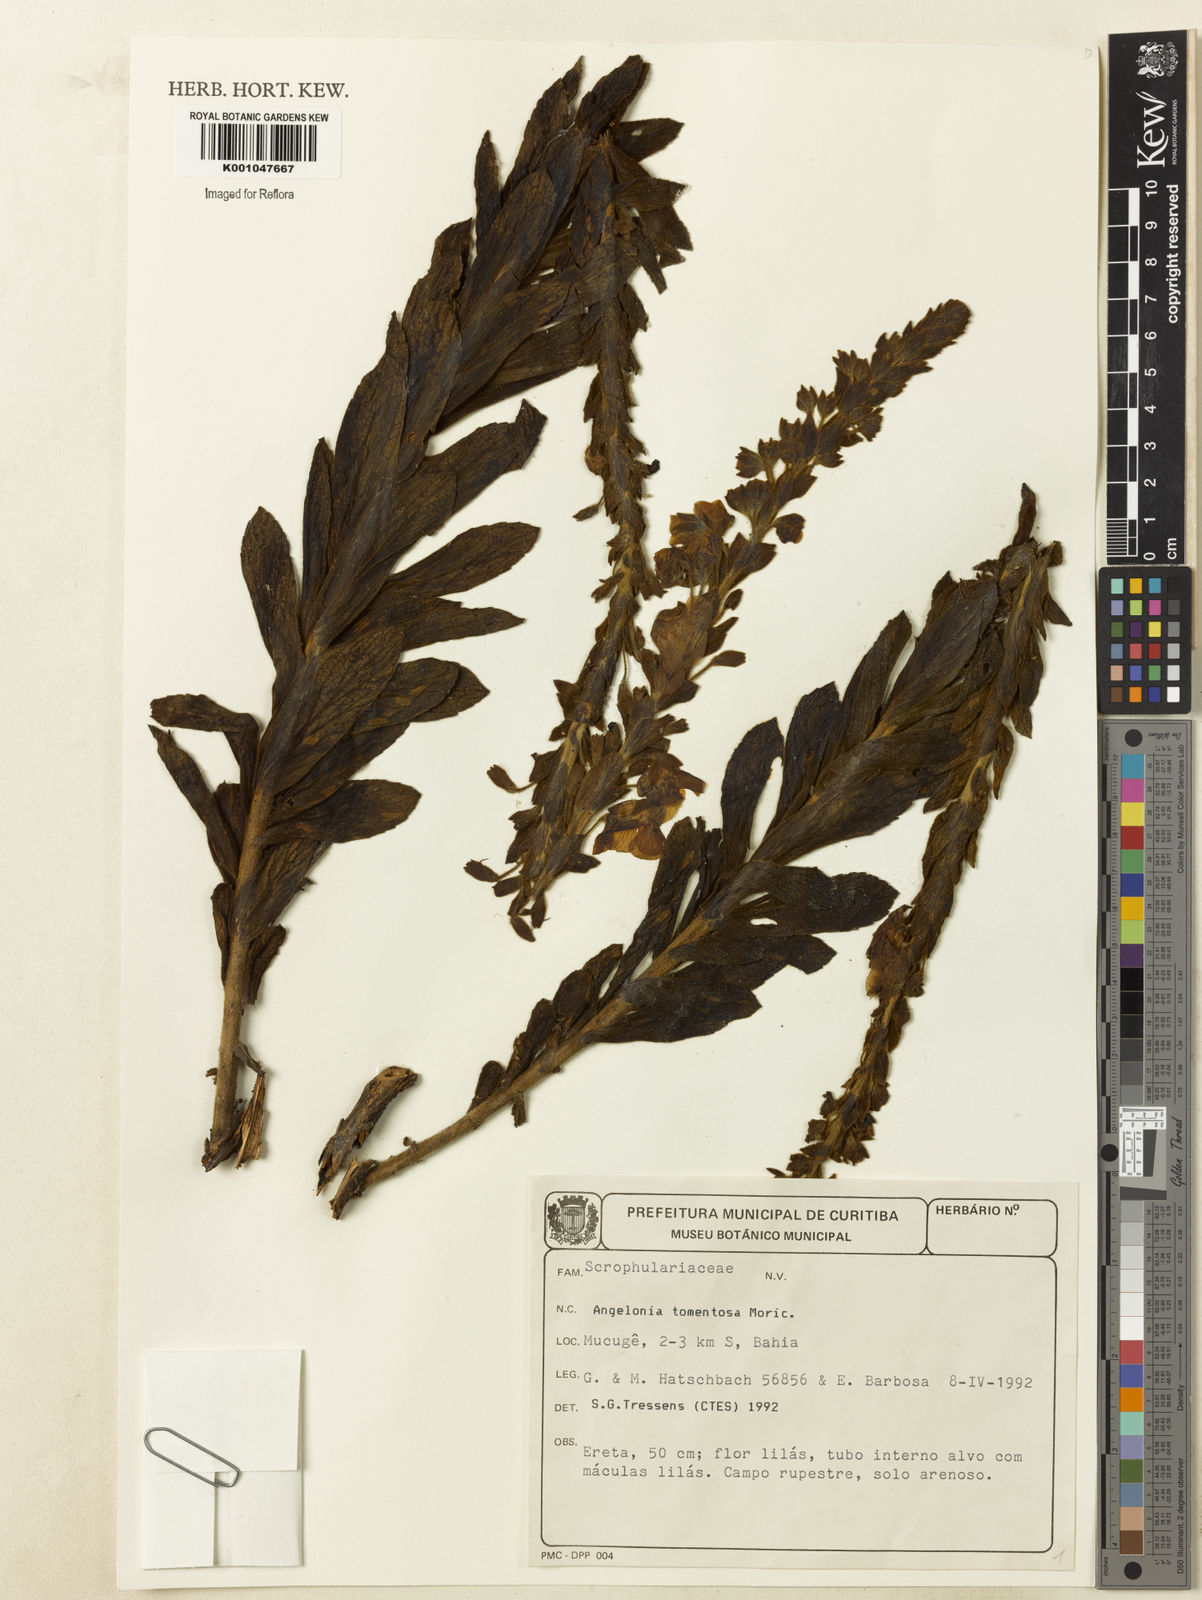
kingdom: Plantae
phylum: Tracheophyta
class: Magnoliopsida
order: Lamiales
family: Plantaginaceae
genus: Angelonia
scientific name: Angelonia tomentosa
